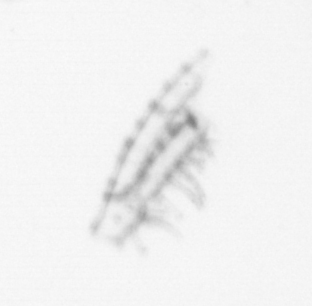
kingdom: Animalia
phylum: Arthropoda
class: Maxillopoda
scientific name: Maxillopoda
